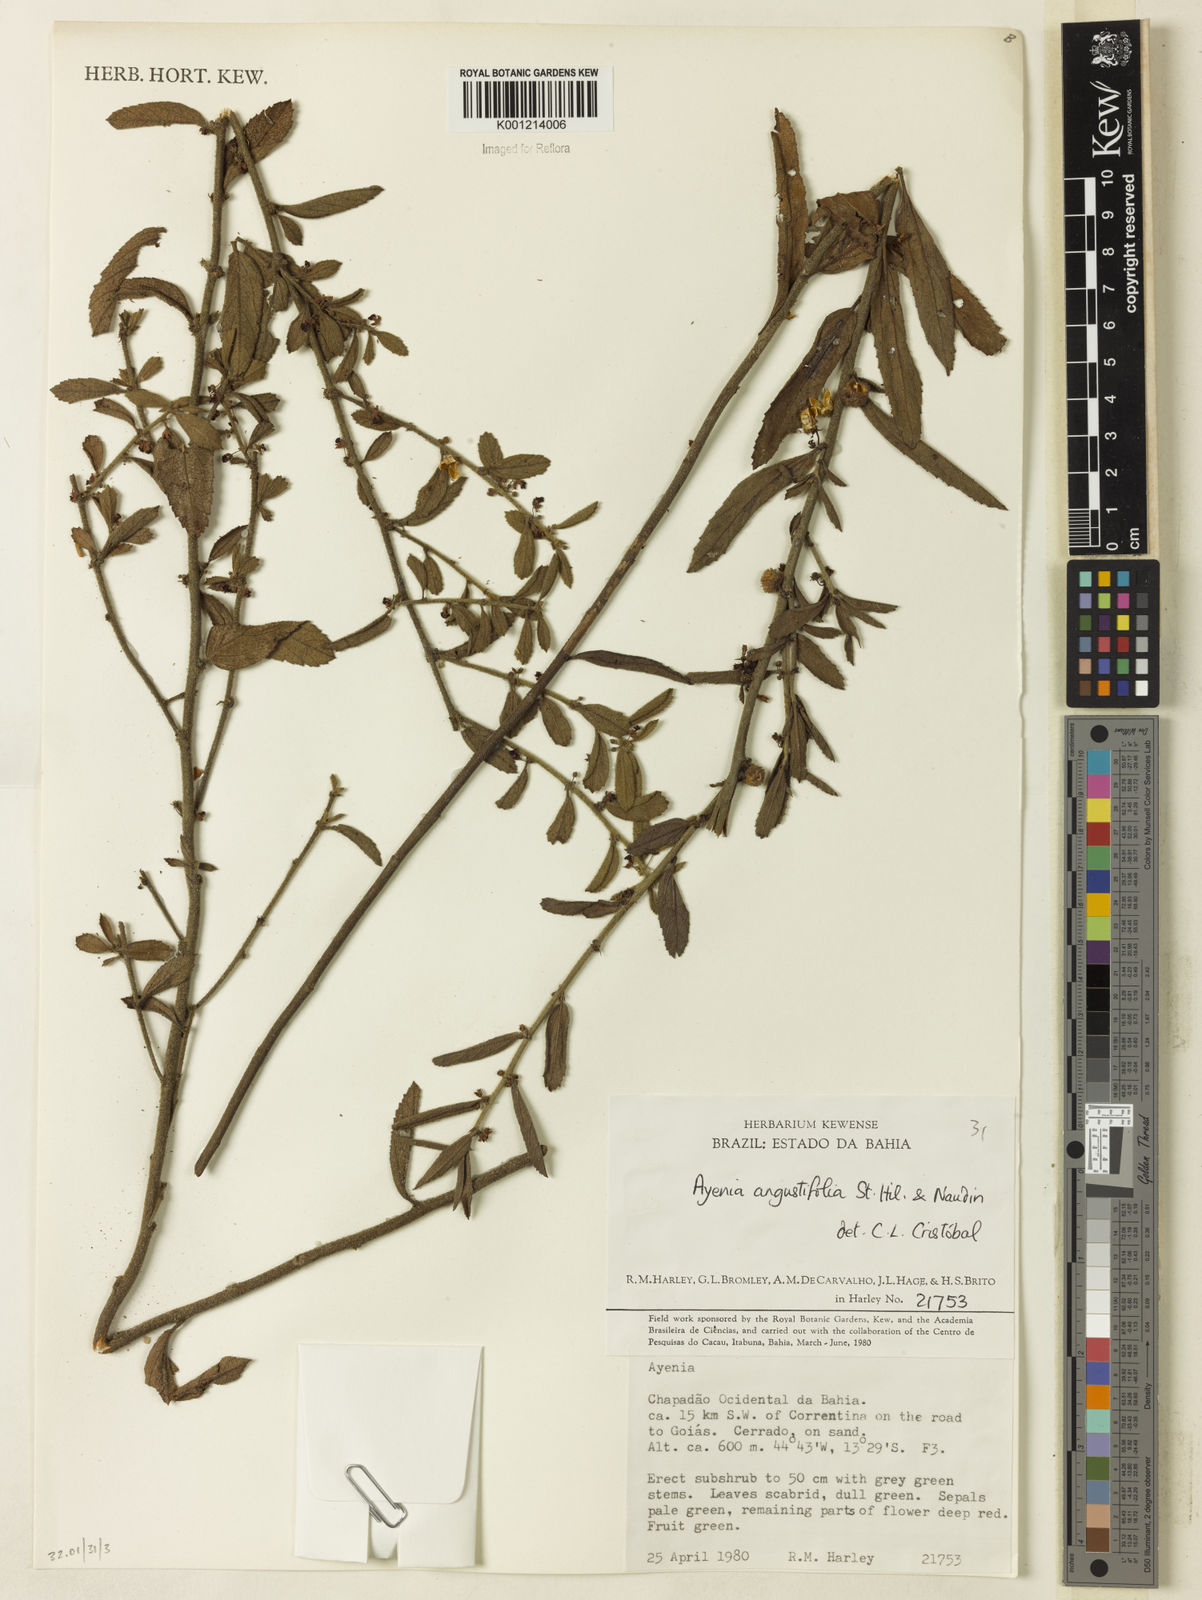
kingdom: Plantae
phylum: Tracheophyta
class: Magnoliopsida
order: Malvales
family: Malvaceae
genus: Ayenia
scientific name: Ayenia angustifolia
